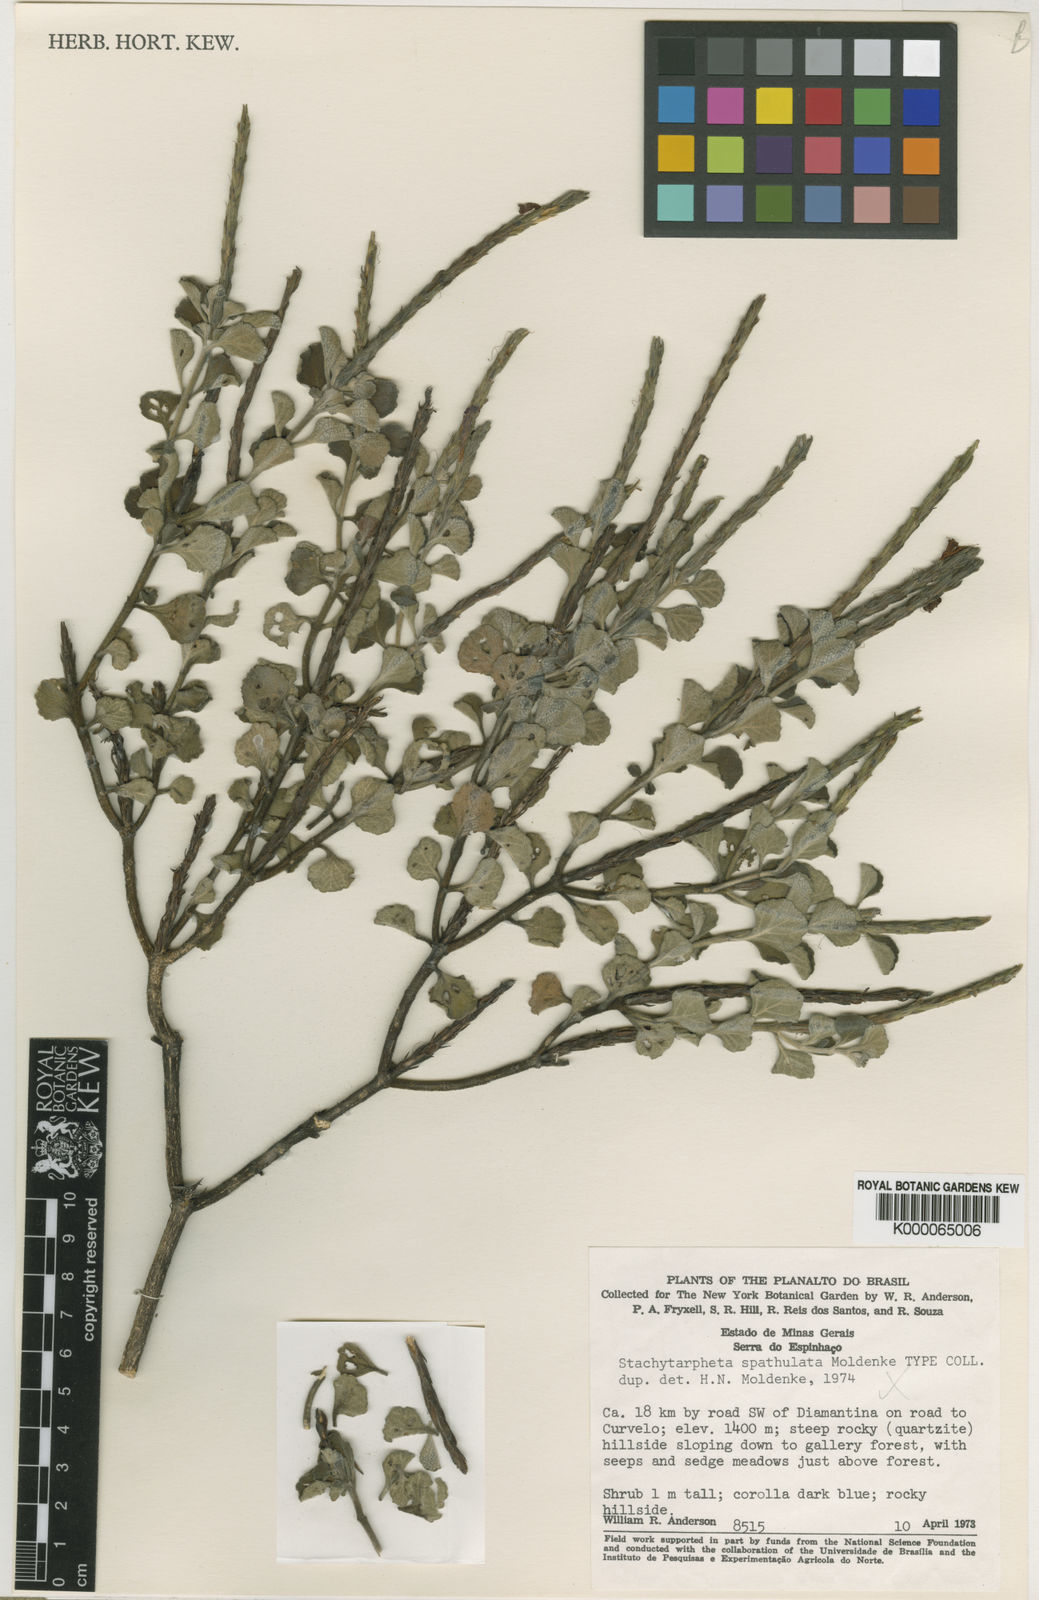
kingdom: Plantae
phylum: Tracheophyta
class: Magnoliopsida
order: Lamiales
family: Verbenaceae
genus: Stachytarpheta
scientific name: Stachytarpheta spathulata
